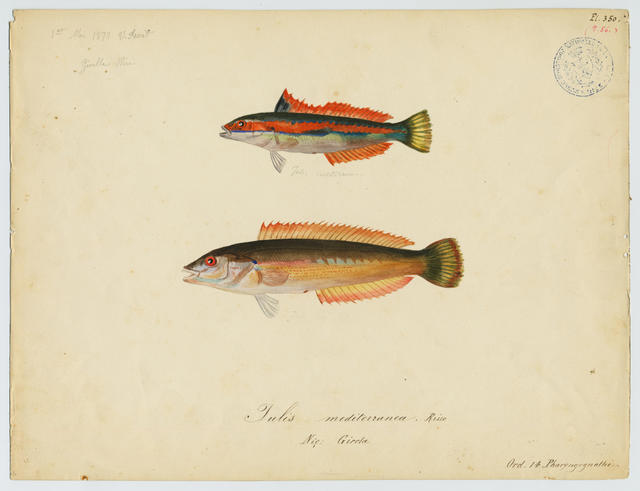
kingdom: Animalia
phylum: Chordata
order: Perciformes
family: Labridae
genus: Coris
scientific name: Coris julis
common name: Rainbow wrasse
